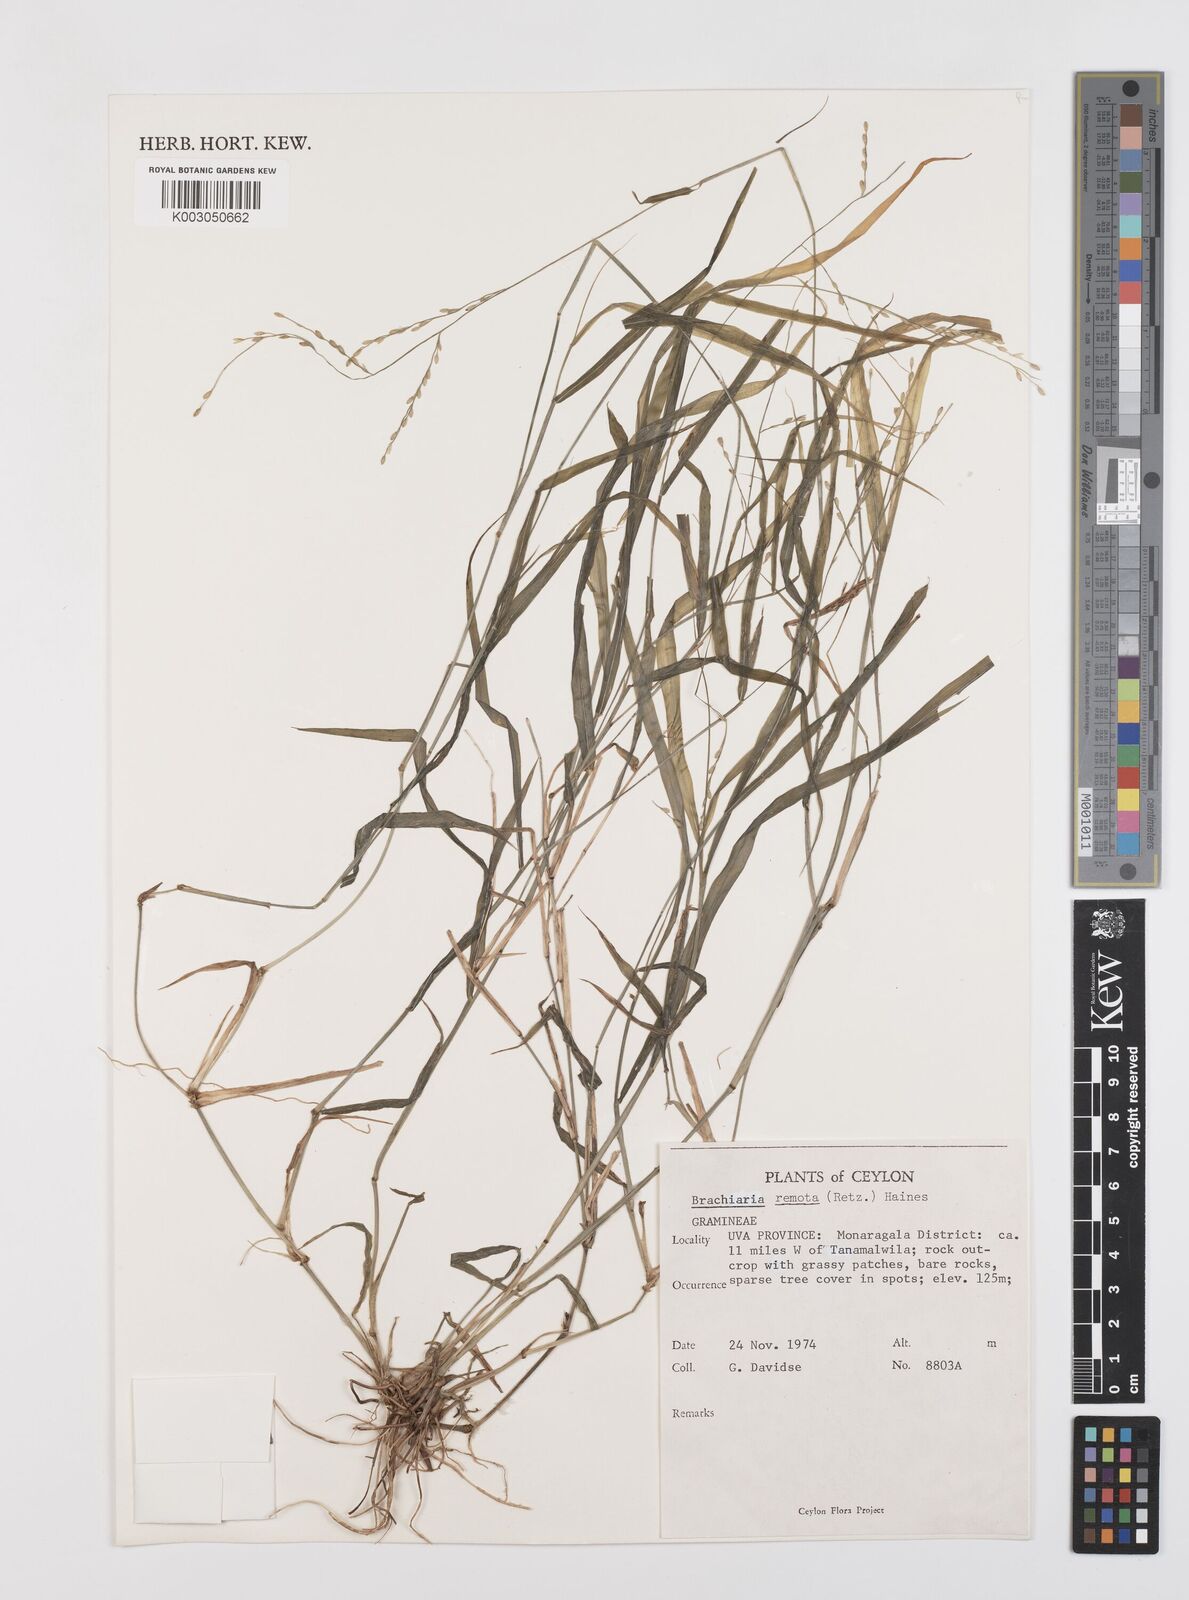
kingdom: Plantae
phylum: Tracheophyta
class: Liliopsida
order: Poales
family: Poaceae
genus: Urochloa
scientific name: Urochloa Brachiaria remota
